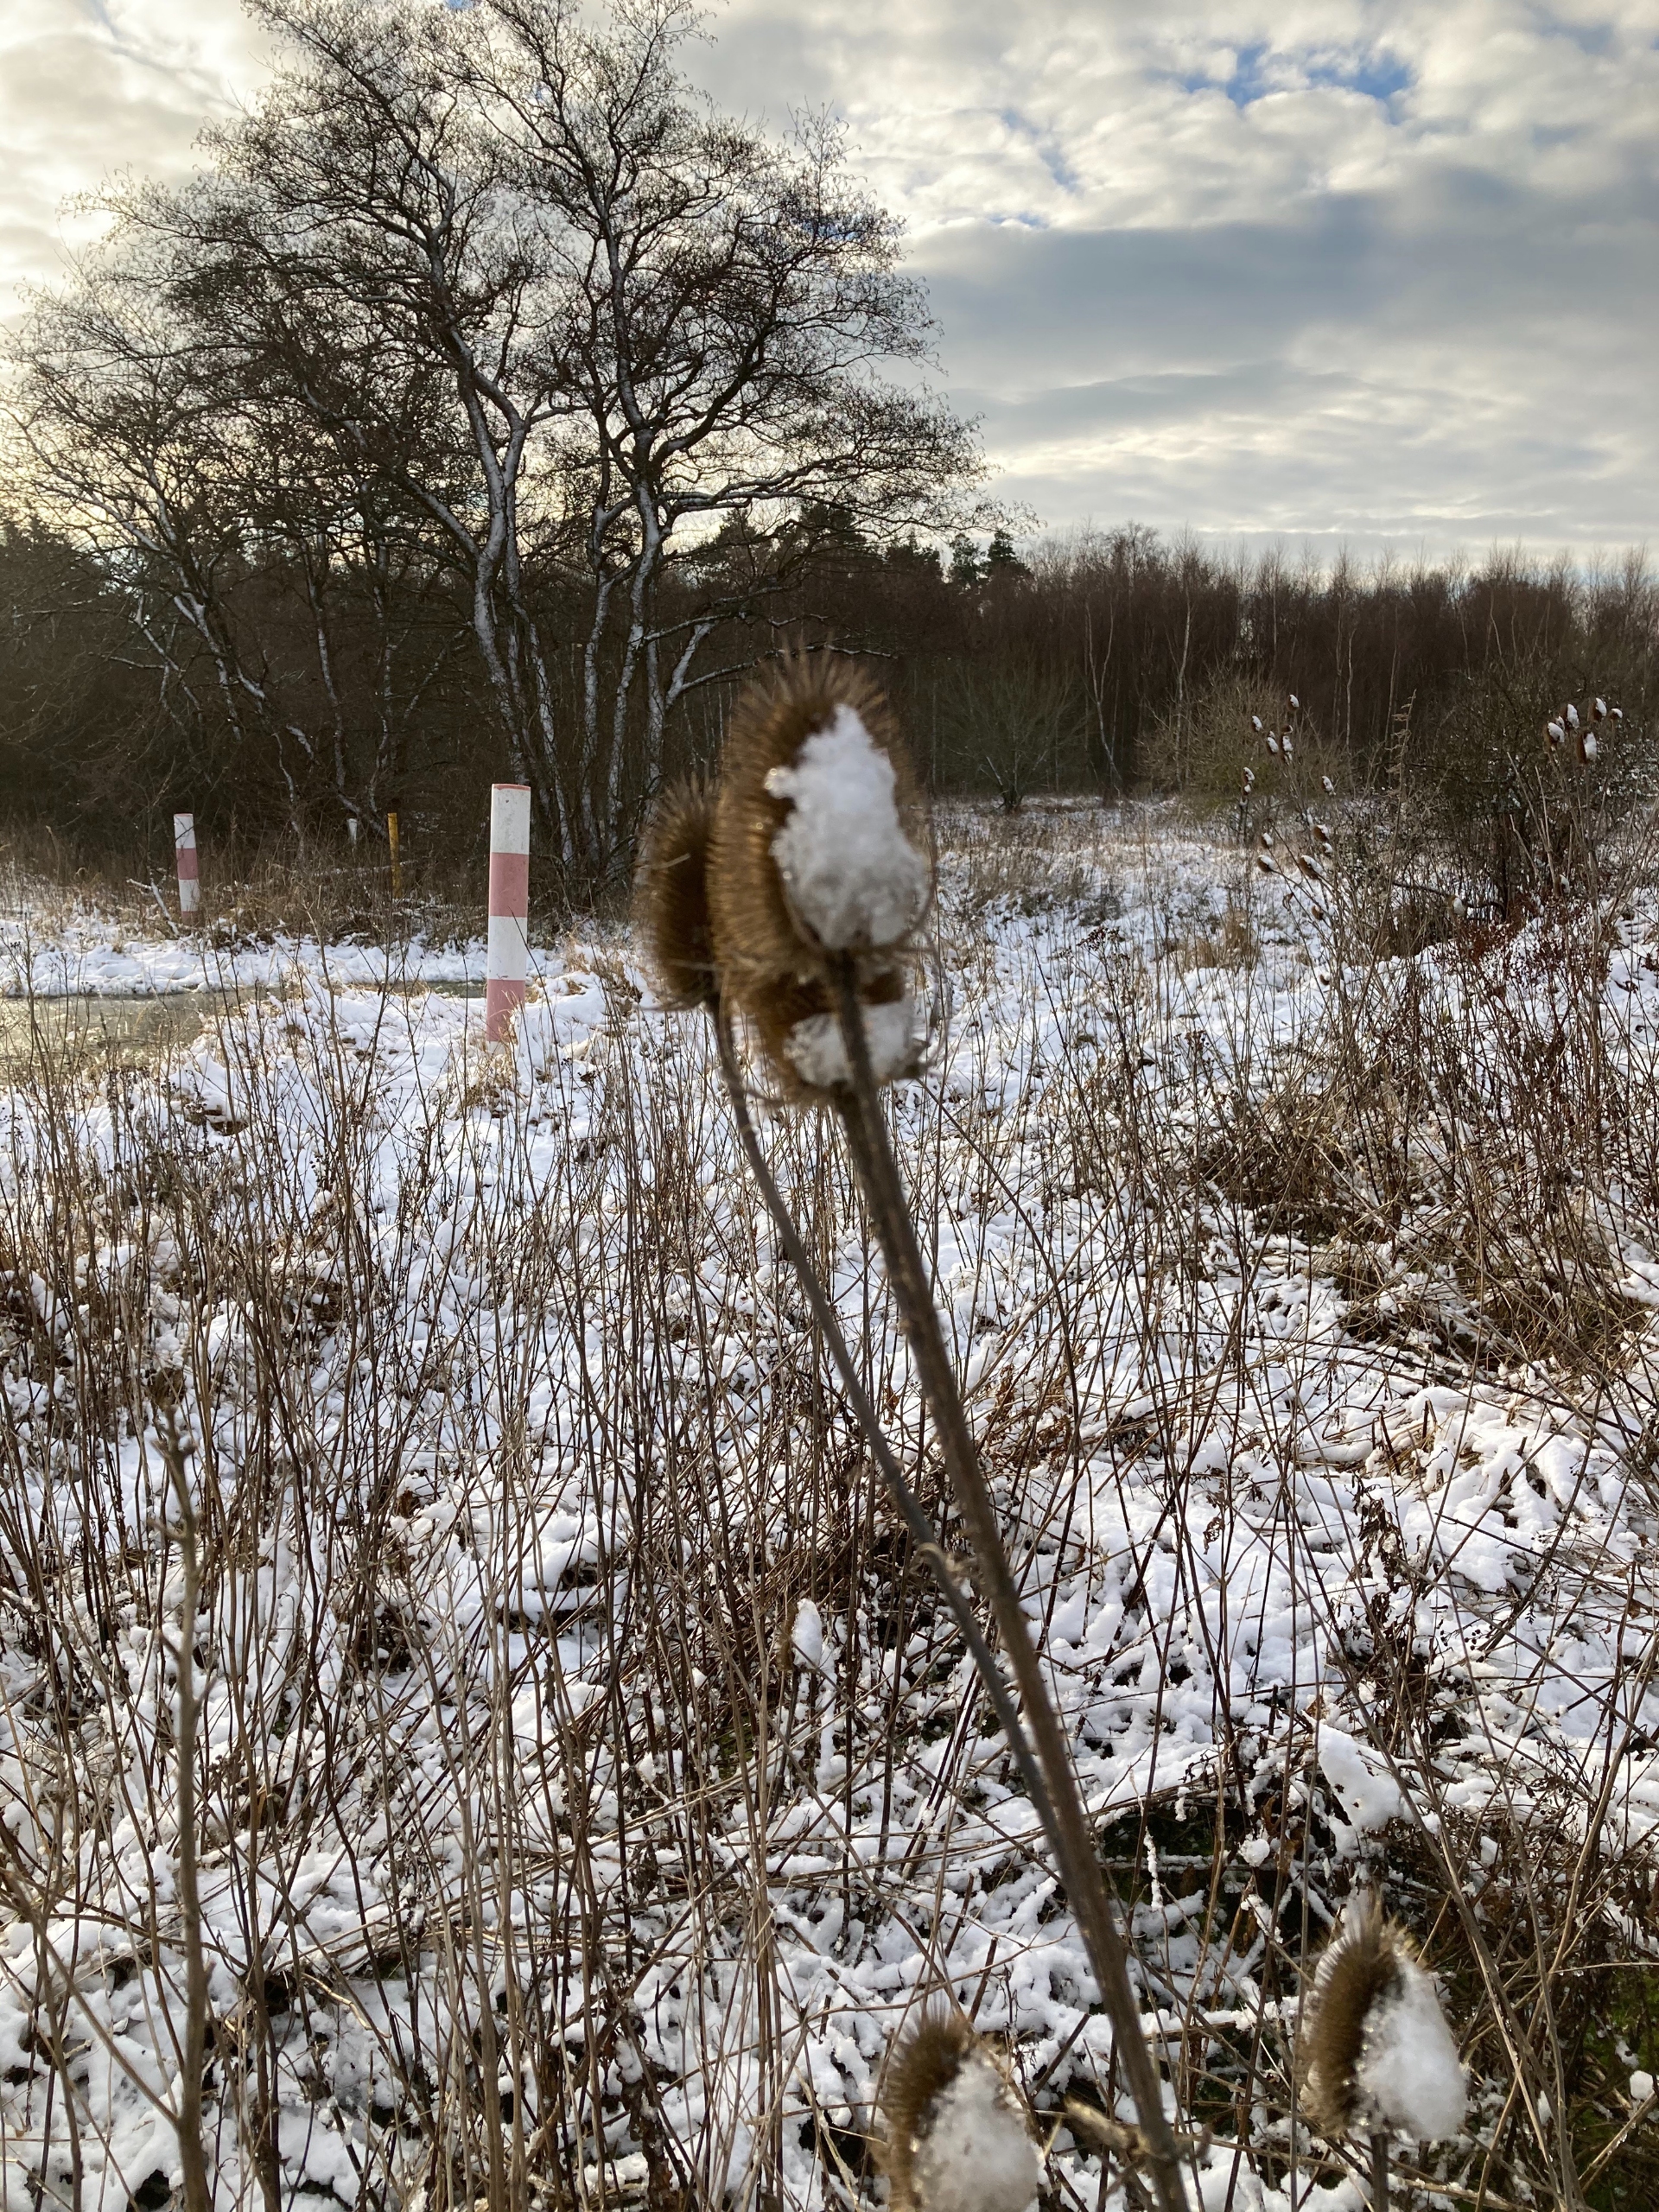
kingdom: Plantae
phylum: Tracheophyta
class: Magnoliopsida
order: Dipsacales
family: Caprifoliaceae
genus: Dipsacus
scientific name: Dipsacus fullonum
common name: Gærde-kartebolle
